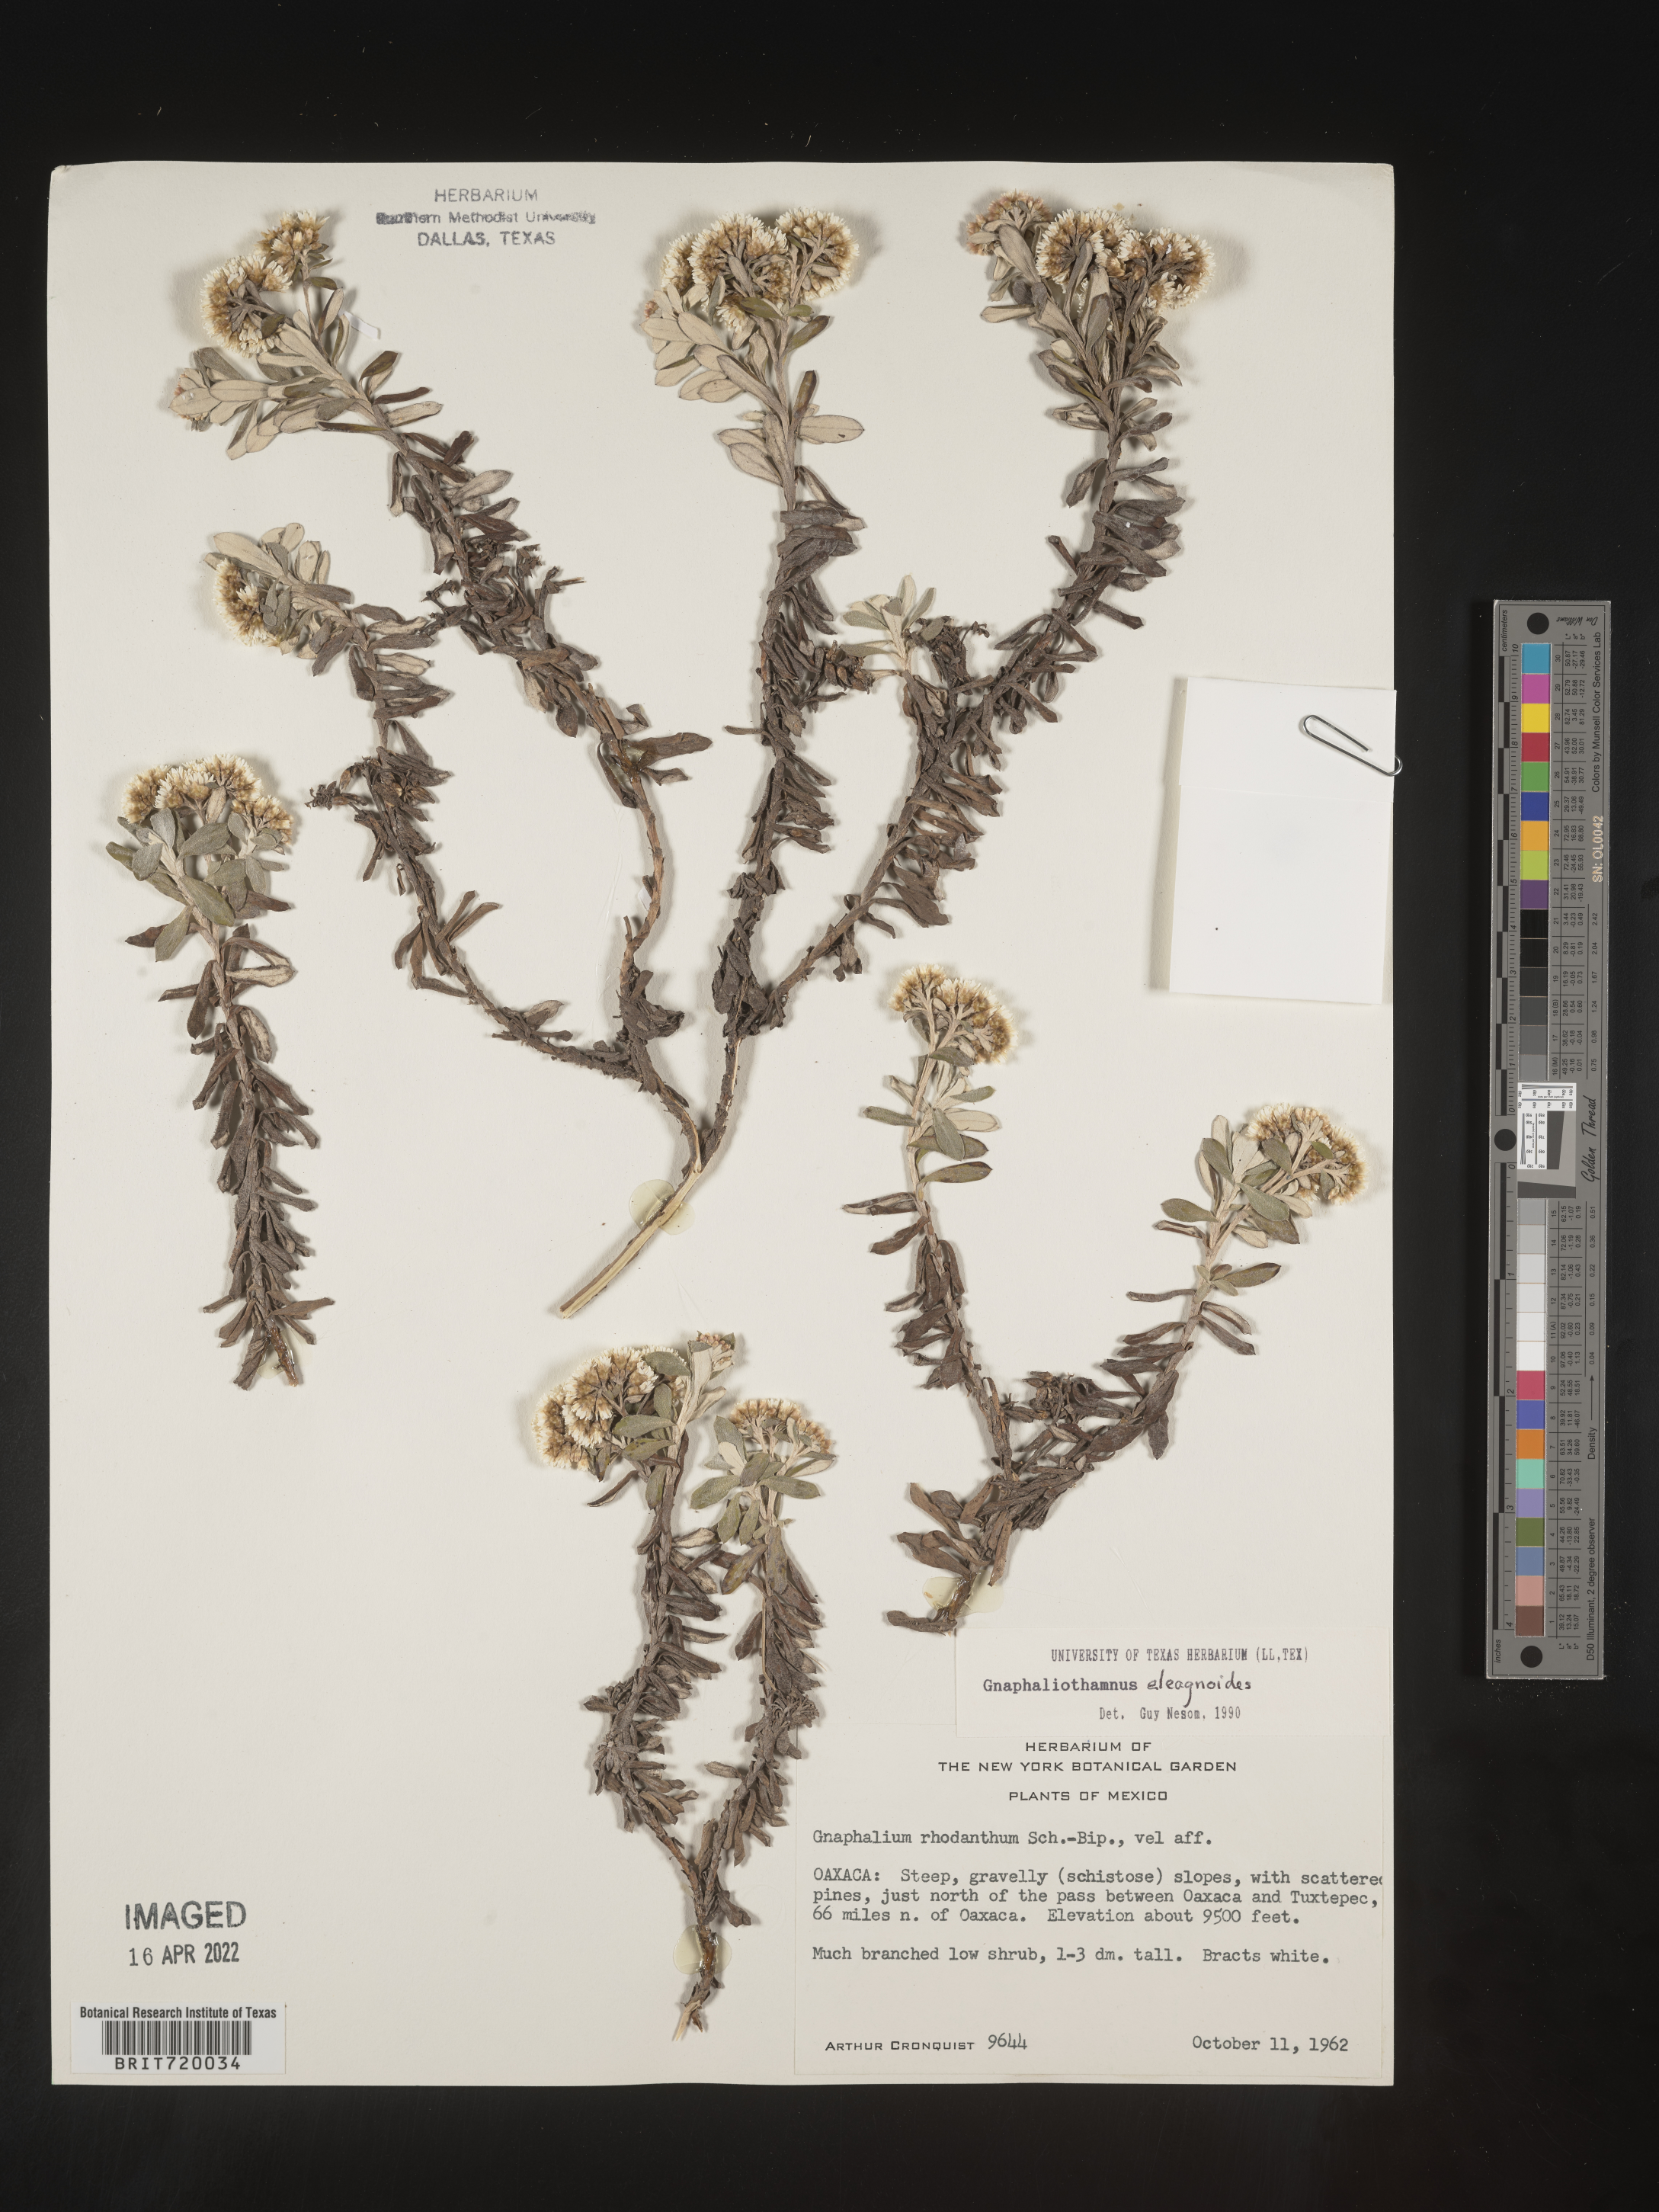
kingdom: Plantae
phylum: Tracheophyta
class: Magnoliopsida
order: Asterales
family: Asteraceae
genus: Gnaphaliothamnus
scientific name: Gnaphaliothamnus
